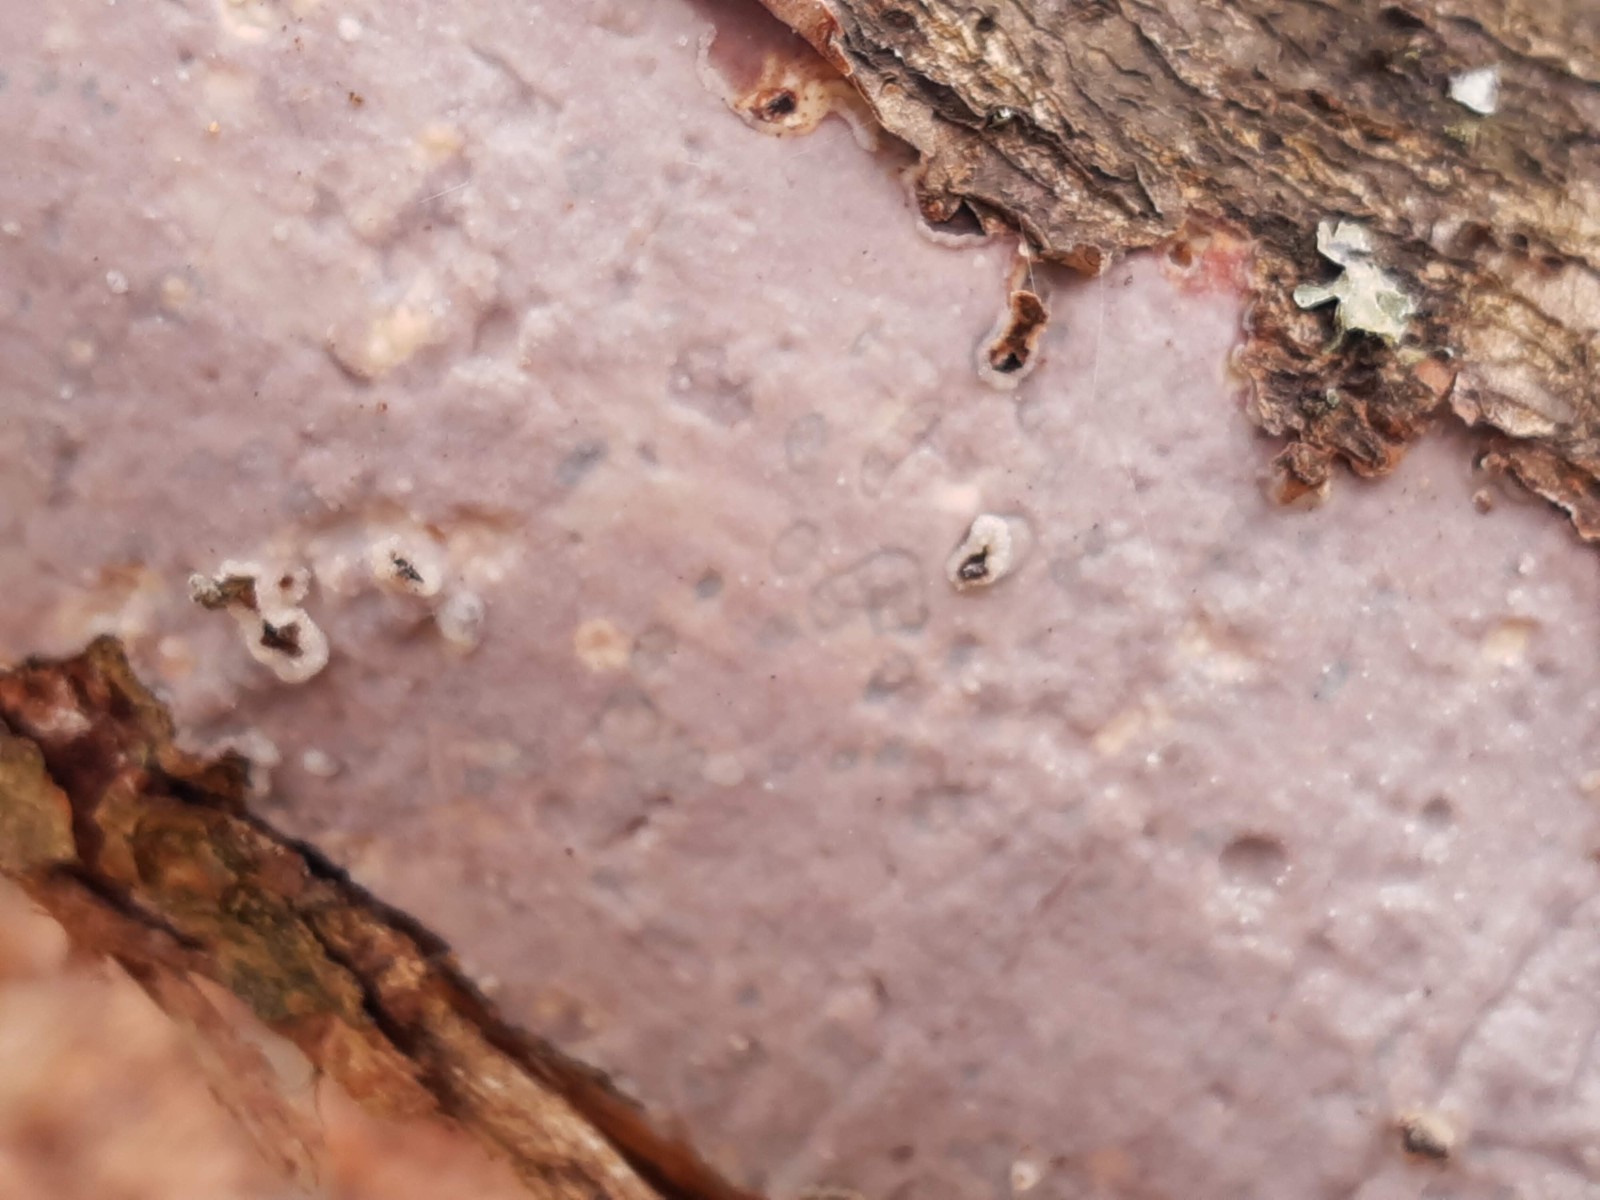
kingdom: Fungi
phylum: Basidiomycota
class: Agaricomycetes
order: Corticiales
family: Vuilleminiaceae
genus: Vuilleminia
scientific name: Vuilleminia comedens
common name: almindelig barksprænger
